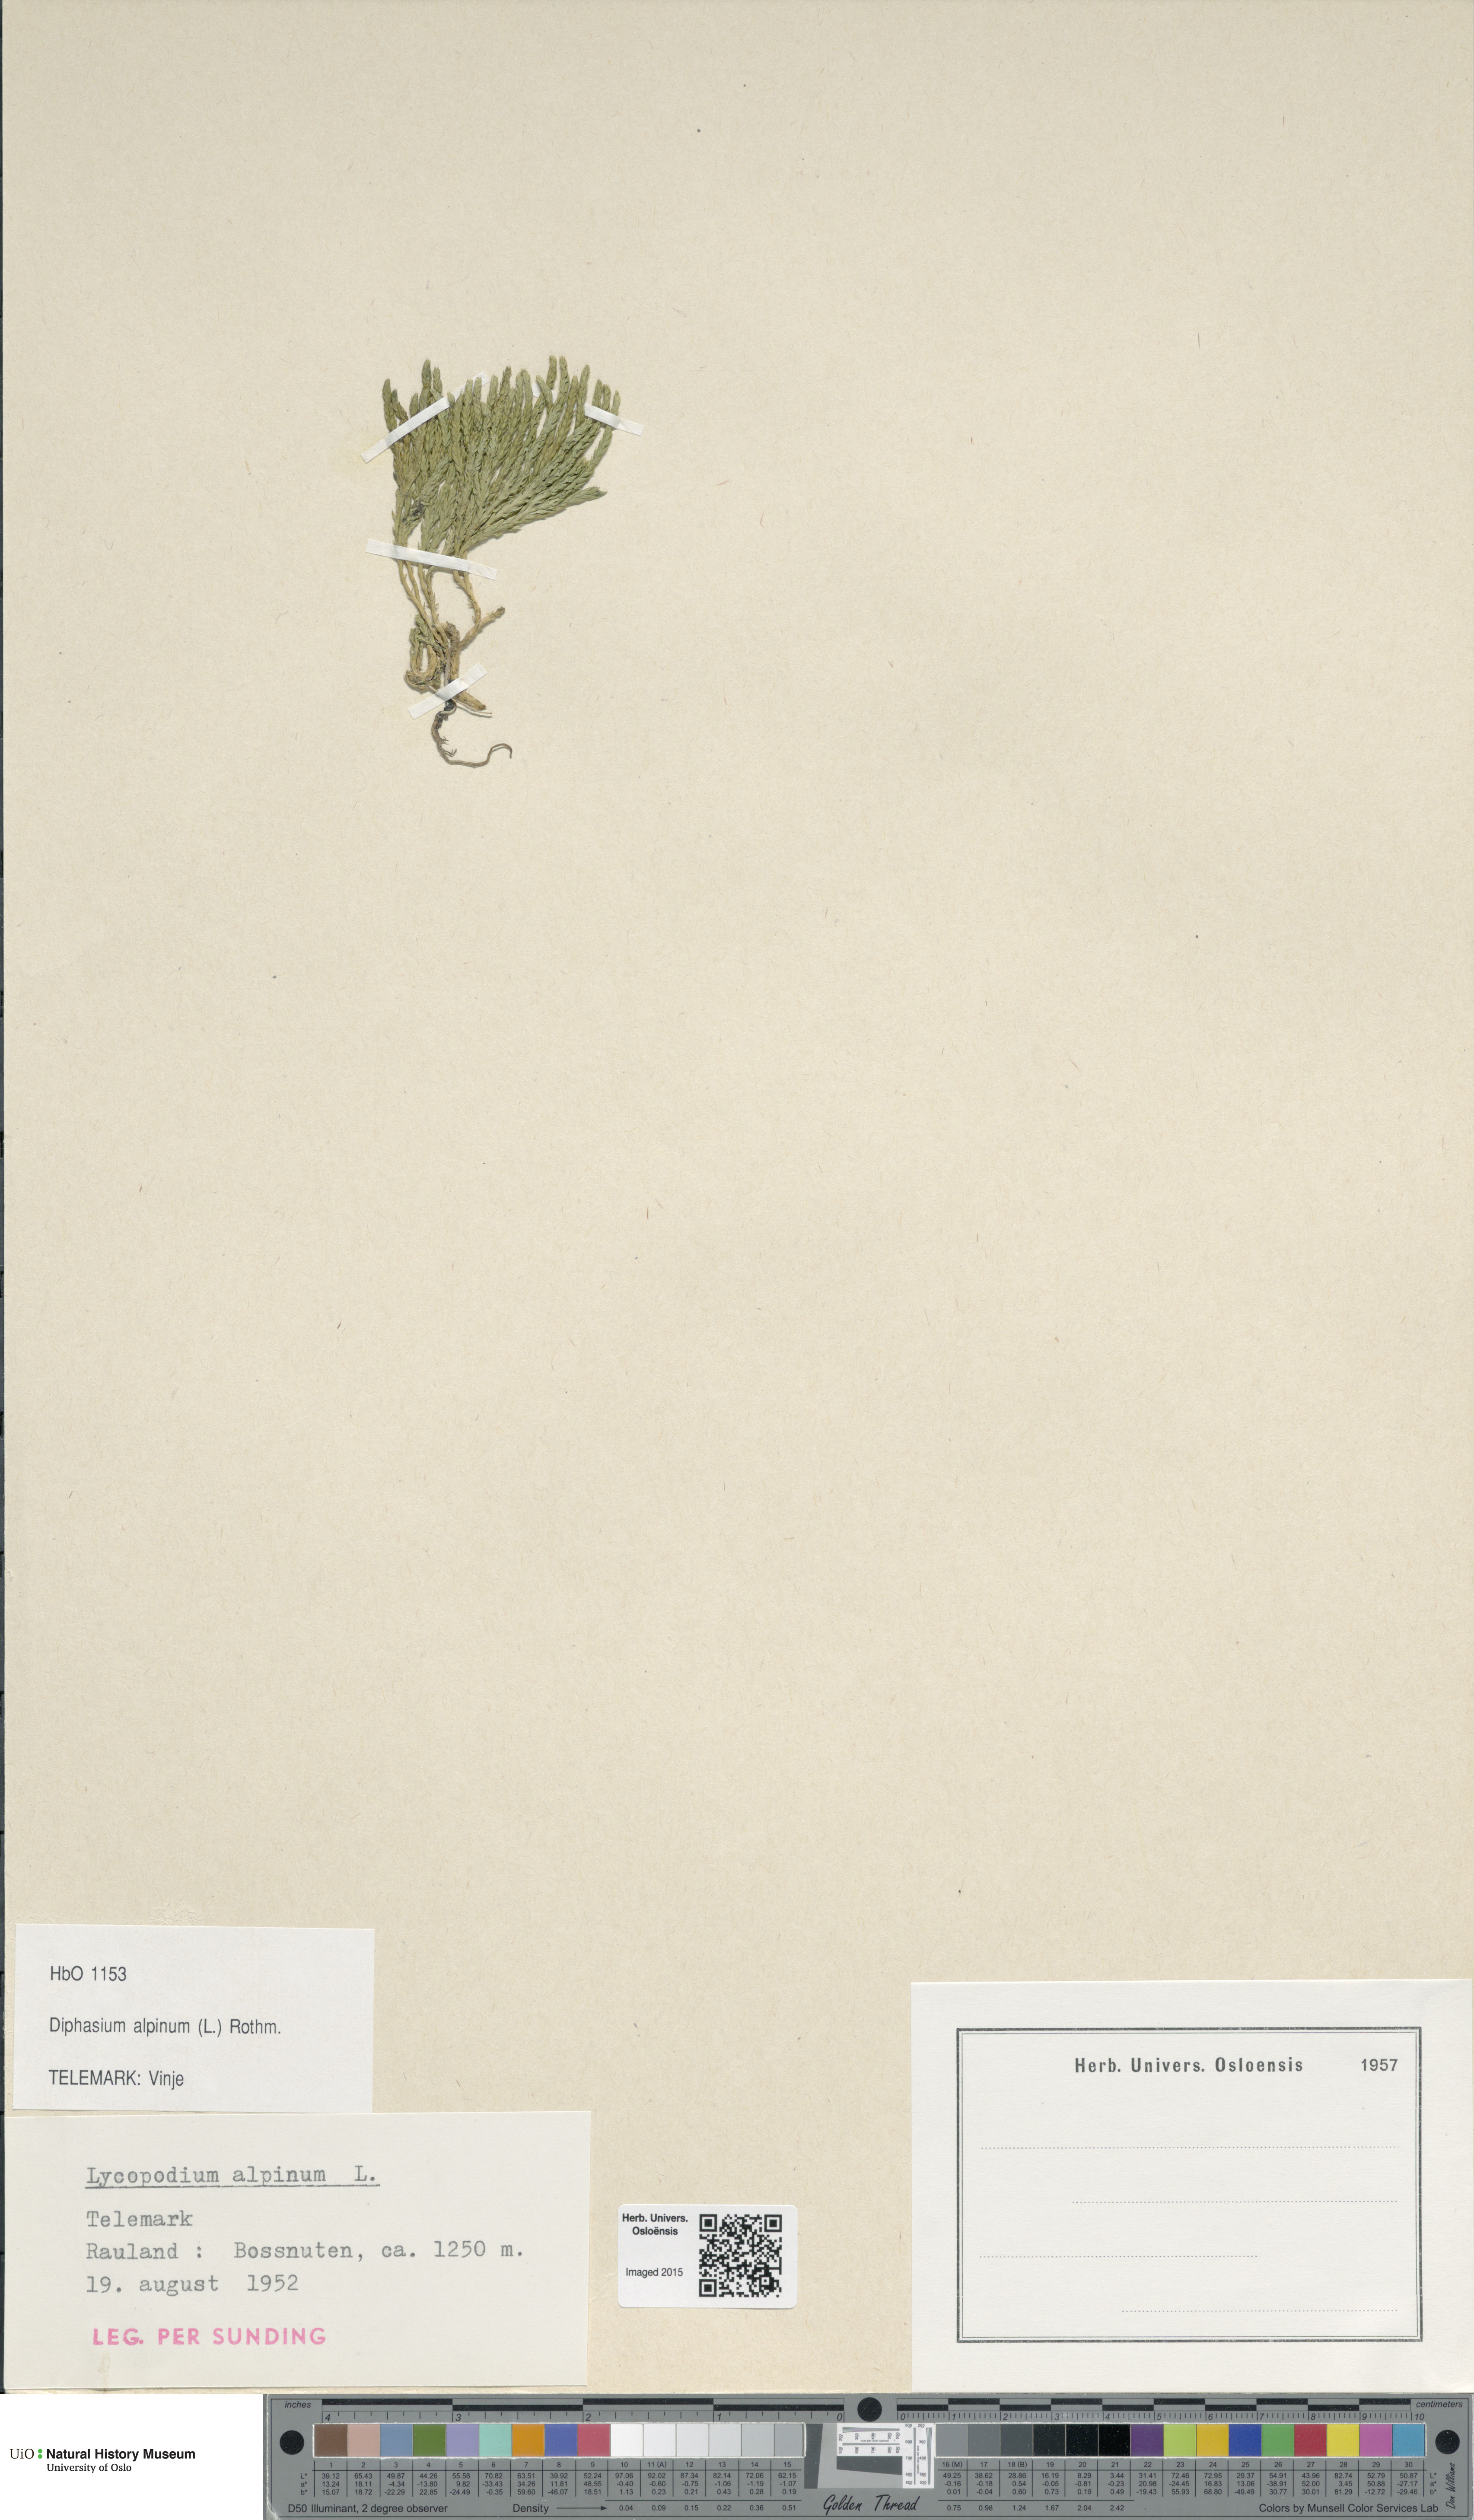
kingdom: Plantae
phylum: Tracheophyta
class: Lycopodiopsida
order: Lycopodiales
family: Lycopodiaceae
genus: Diphasiastrum
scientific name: Diphasiastrum alpinum
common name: Alpine clubmoss
